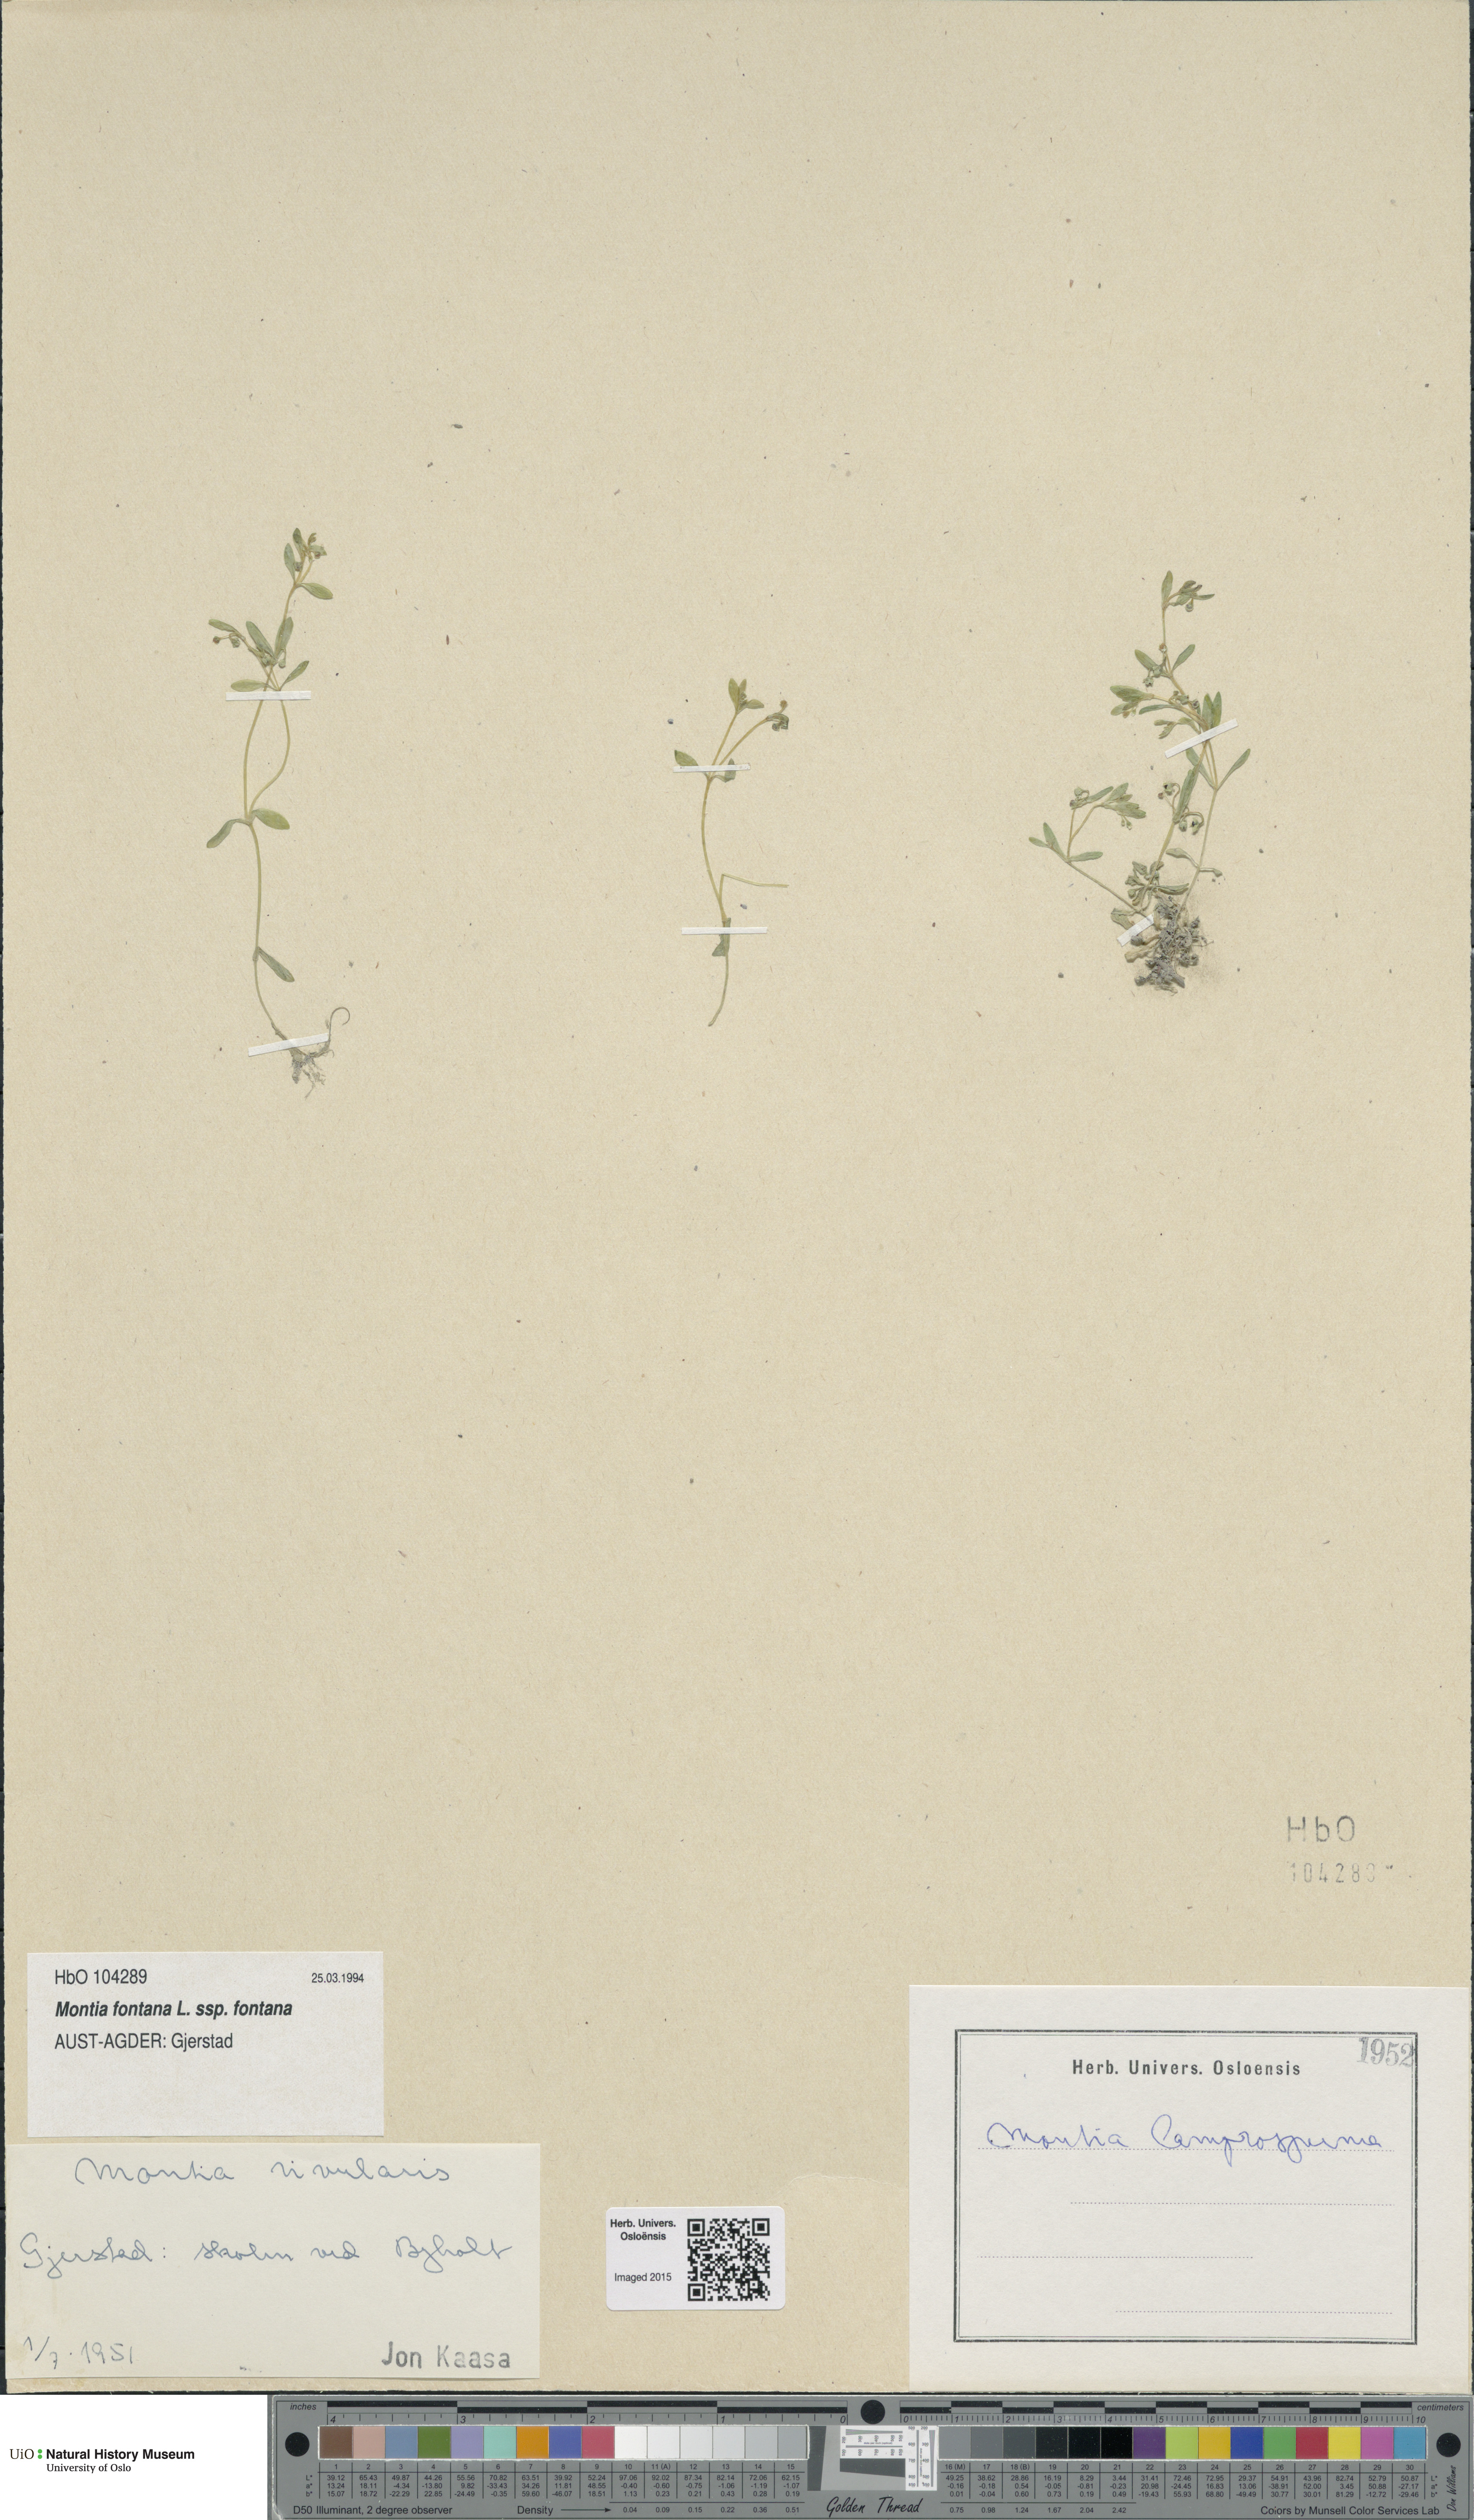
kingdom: Plantae
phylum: Tracheophyta
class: Magnoliopsida
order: Caryophyllales
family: Montiaceae
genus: Montia
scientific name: Montia fontana
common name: Blinks
